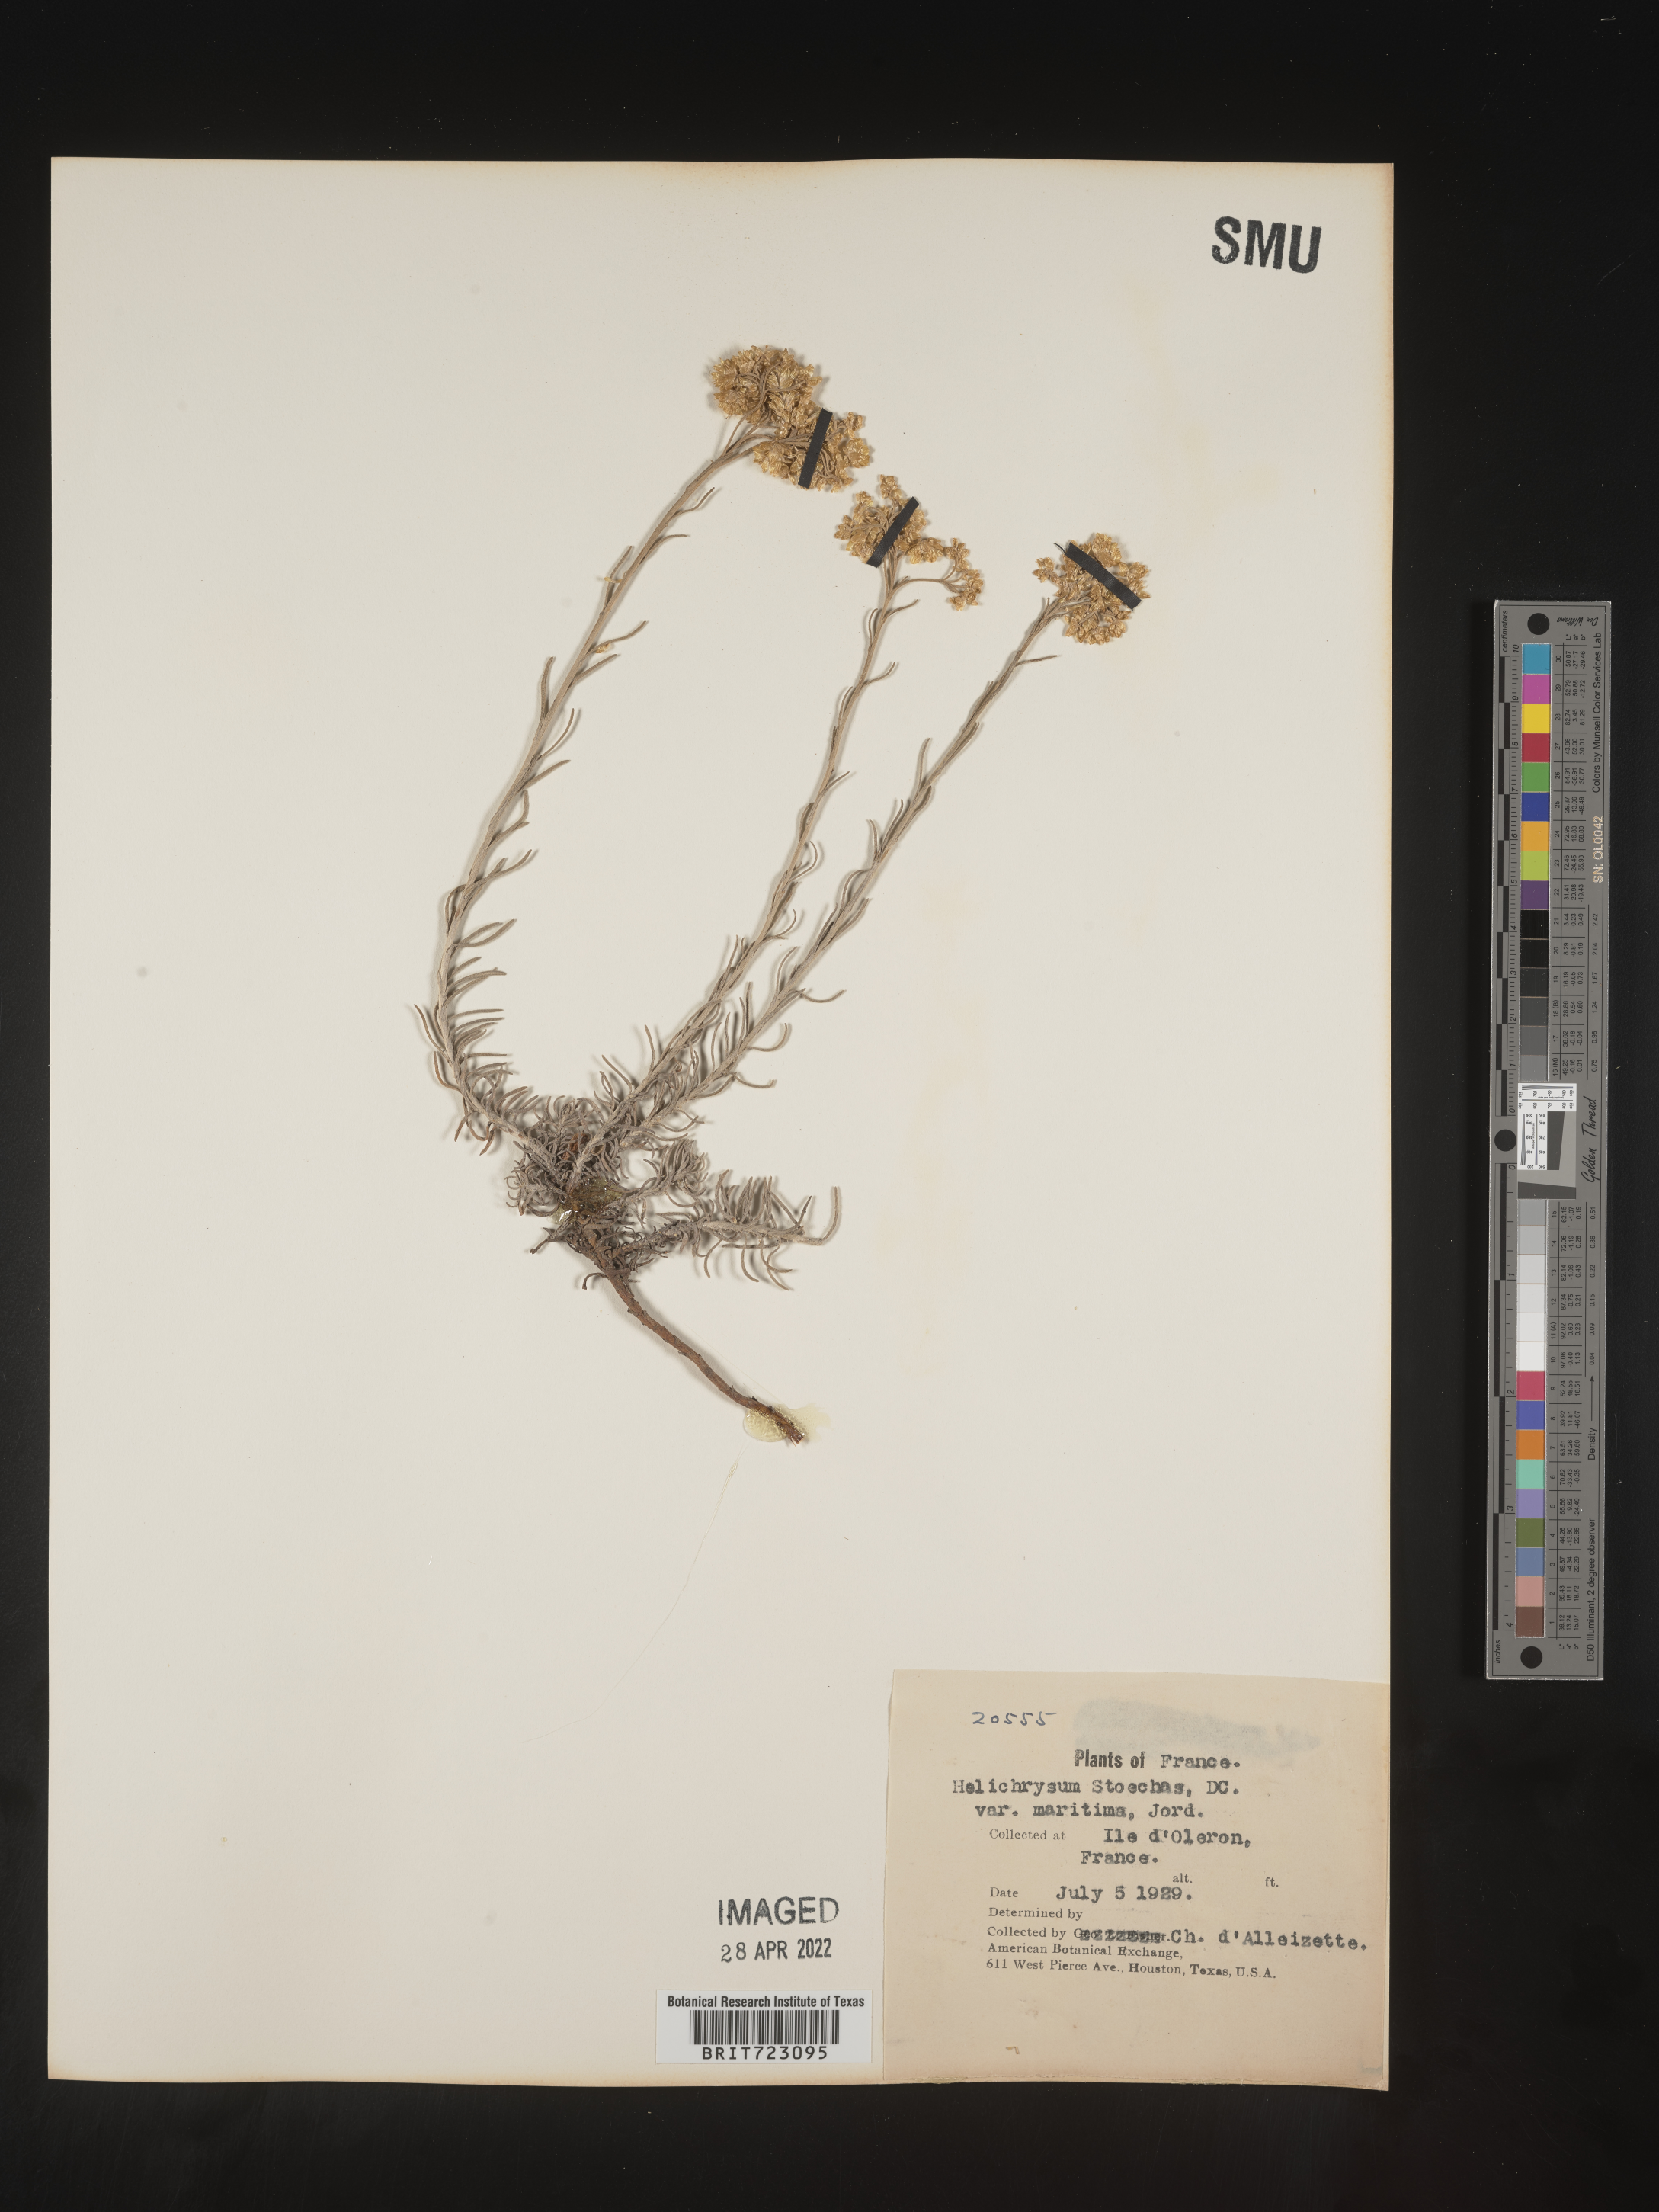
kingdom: Plantae
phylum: Tracheophyta
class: Magnoliopsida
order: Asterales
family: Asteraceae
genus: Helichrysum
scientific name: Helichrysum stoechas
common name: Goldilocks
